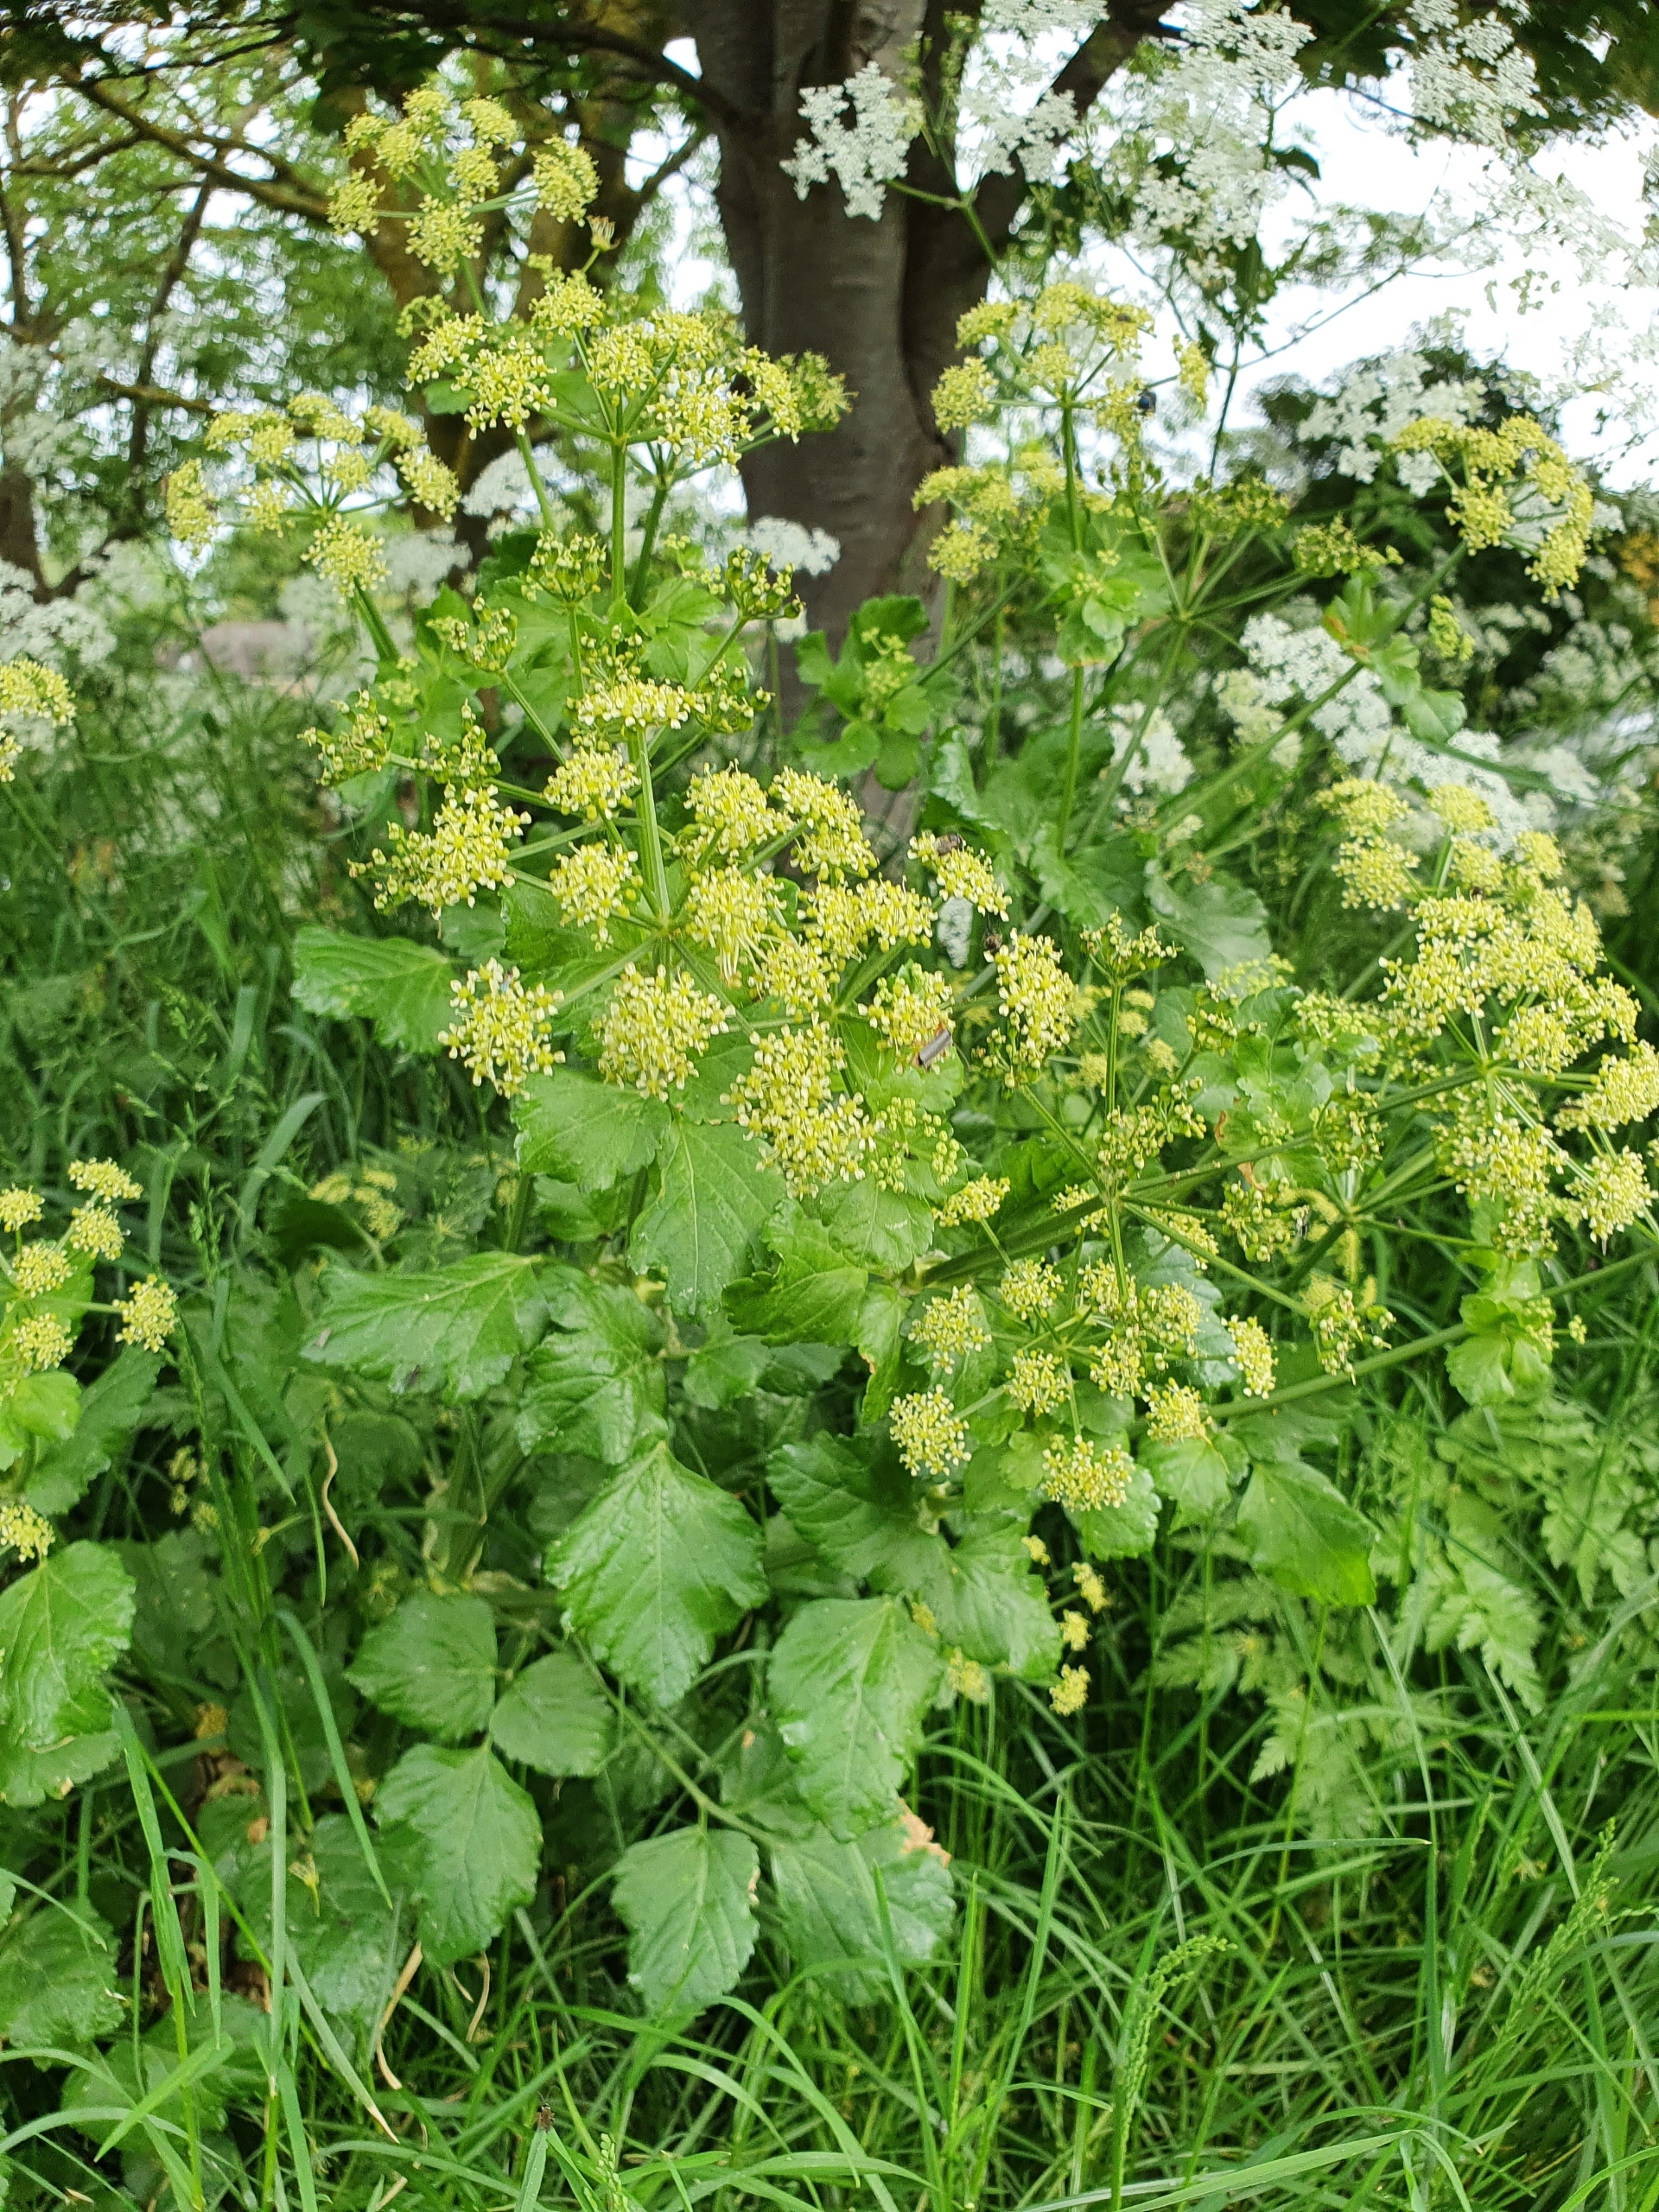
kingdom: Plantae
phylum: Tracheophyta
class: Magnoliopsida
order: Apiales
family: Apiaceae
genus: Smyrnium
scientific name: Smyrnium olusatrum
